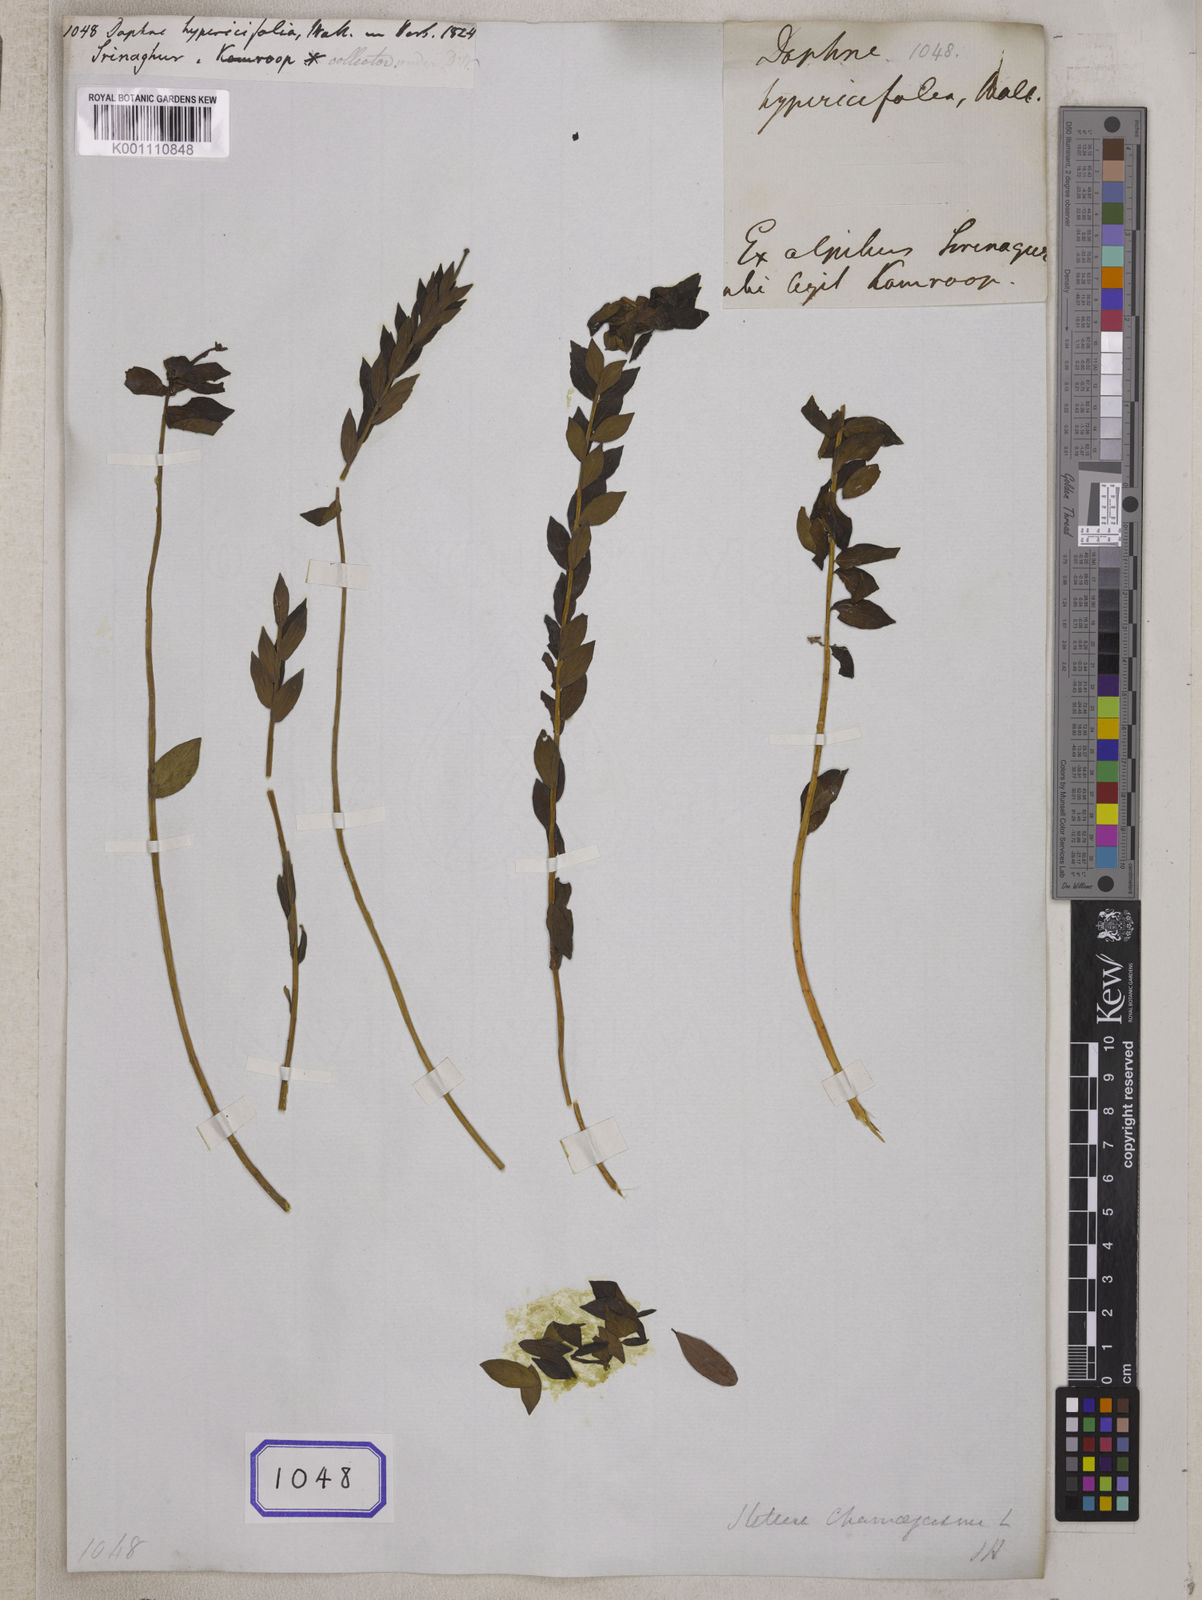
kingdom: Plantae
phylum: Tracheophyta
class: Magnoliopsida
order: Malvales
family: Thymelaeaceae
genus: Daphne
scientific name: Daphne
